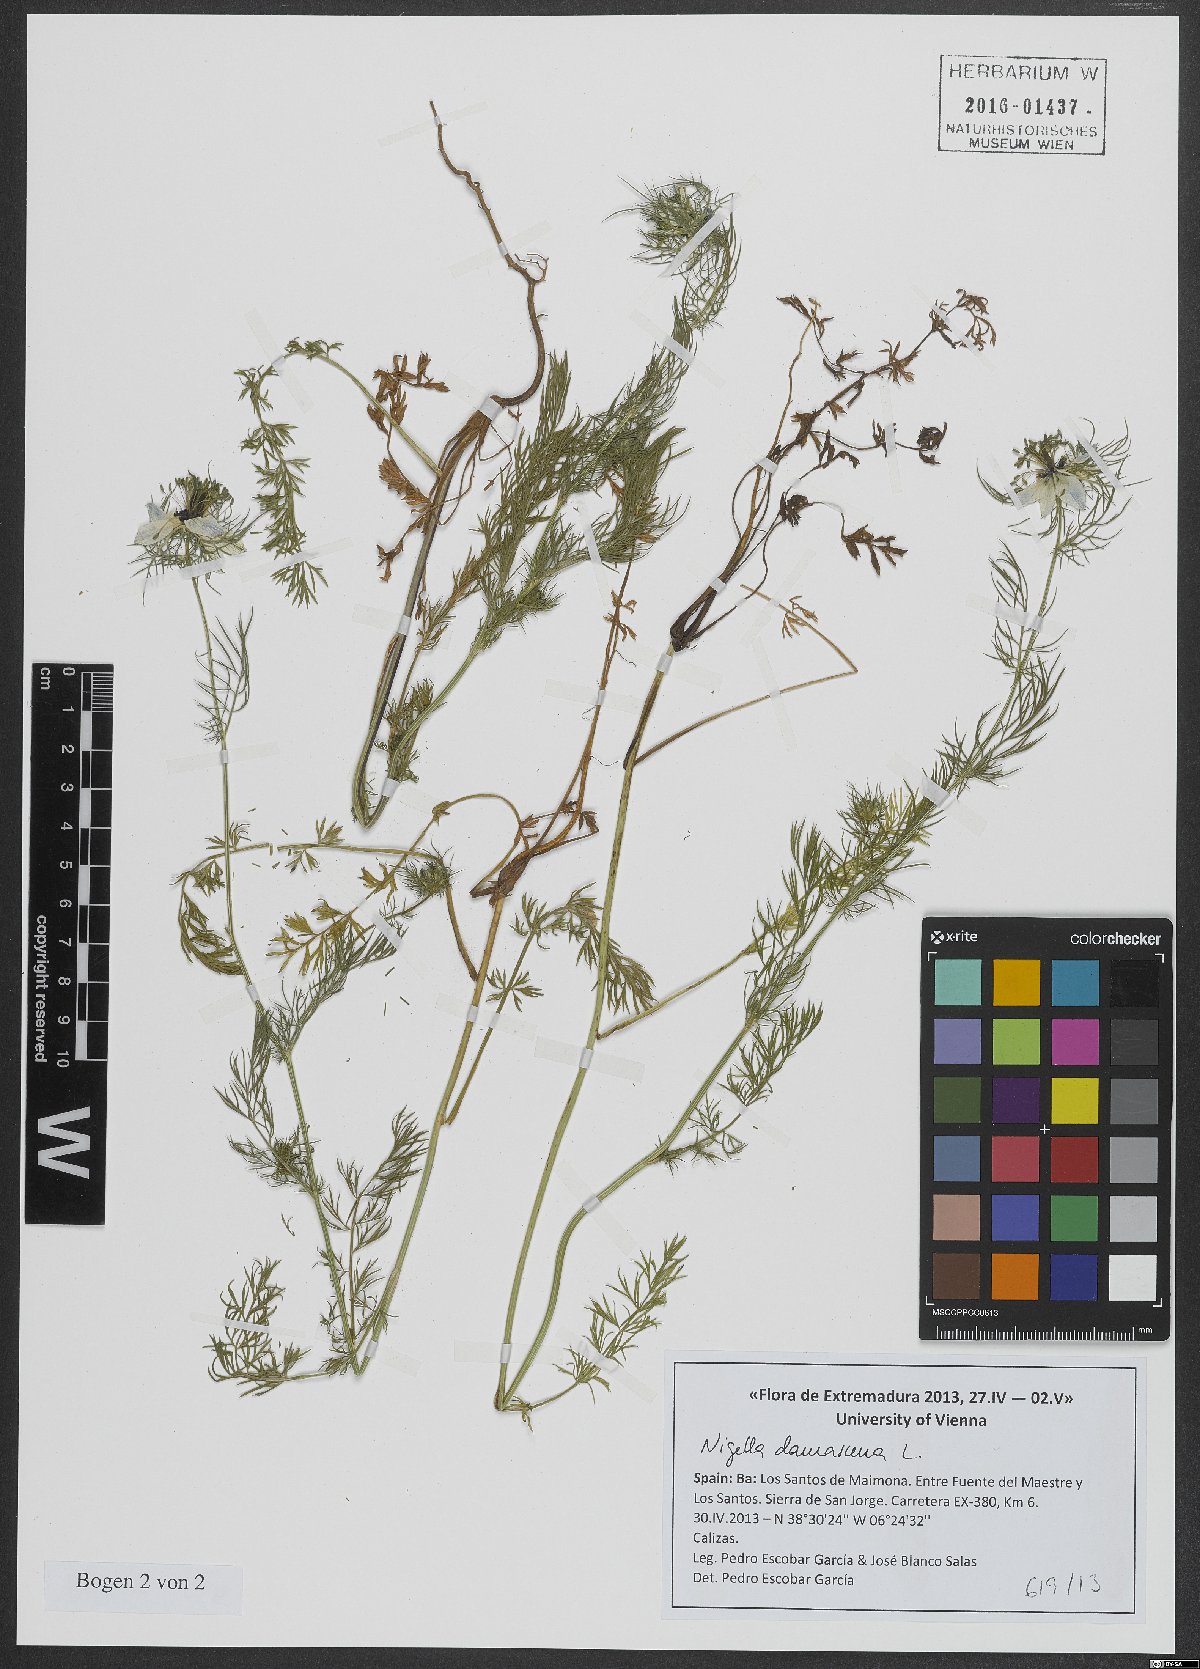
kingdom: Plantae
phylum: Tracheophyta
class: Magnoliopsida
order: Ranunculales
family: Ranunculaceae
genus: Nigella
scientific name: Nigella damascena
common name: Love-in-a-mist
